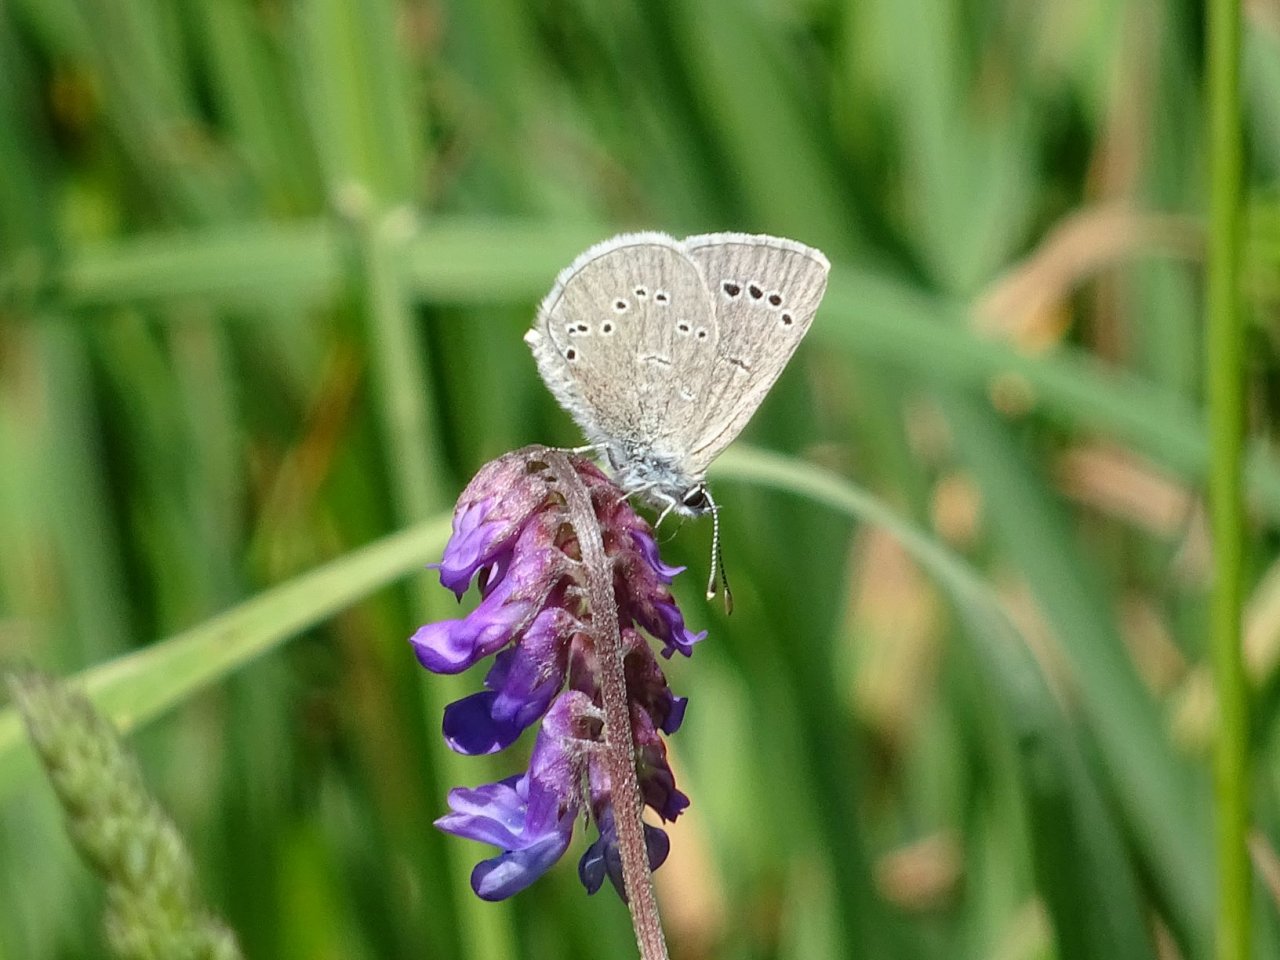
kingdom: Animalia
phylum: Arthropoda
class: Insecta
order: Lepidoptera
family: Lycaenidae
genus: Glaucopsyche
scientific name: Glaucopsyche lygdamus
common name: Silvery Blue
